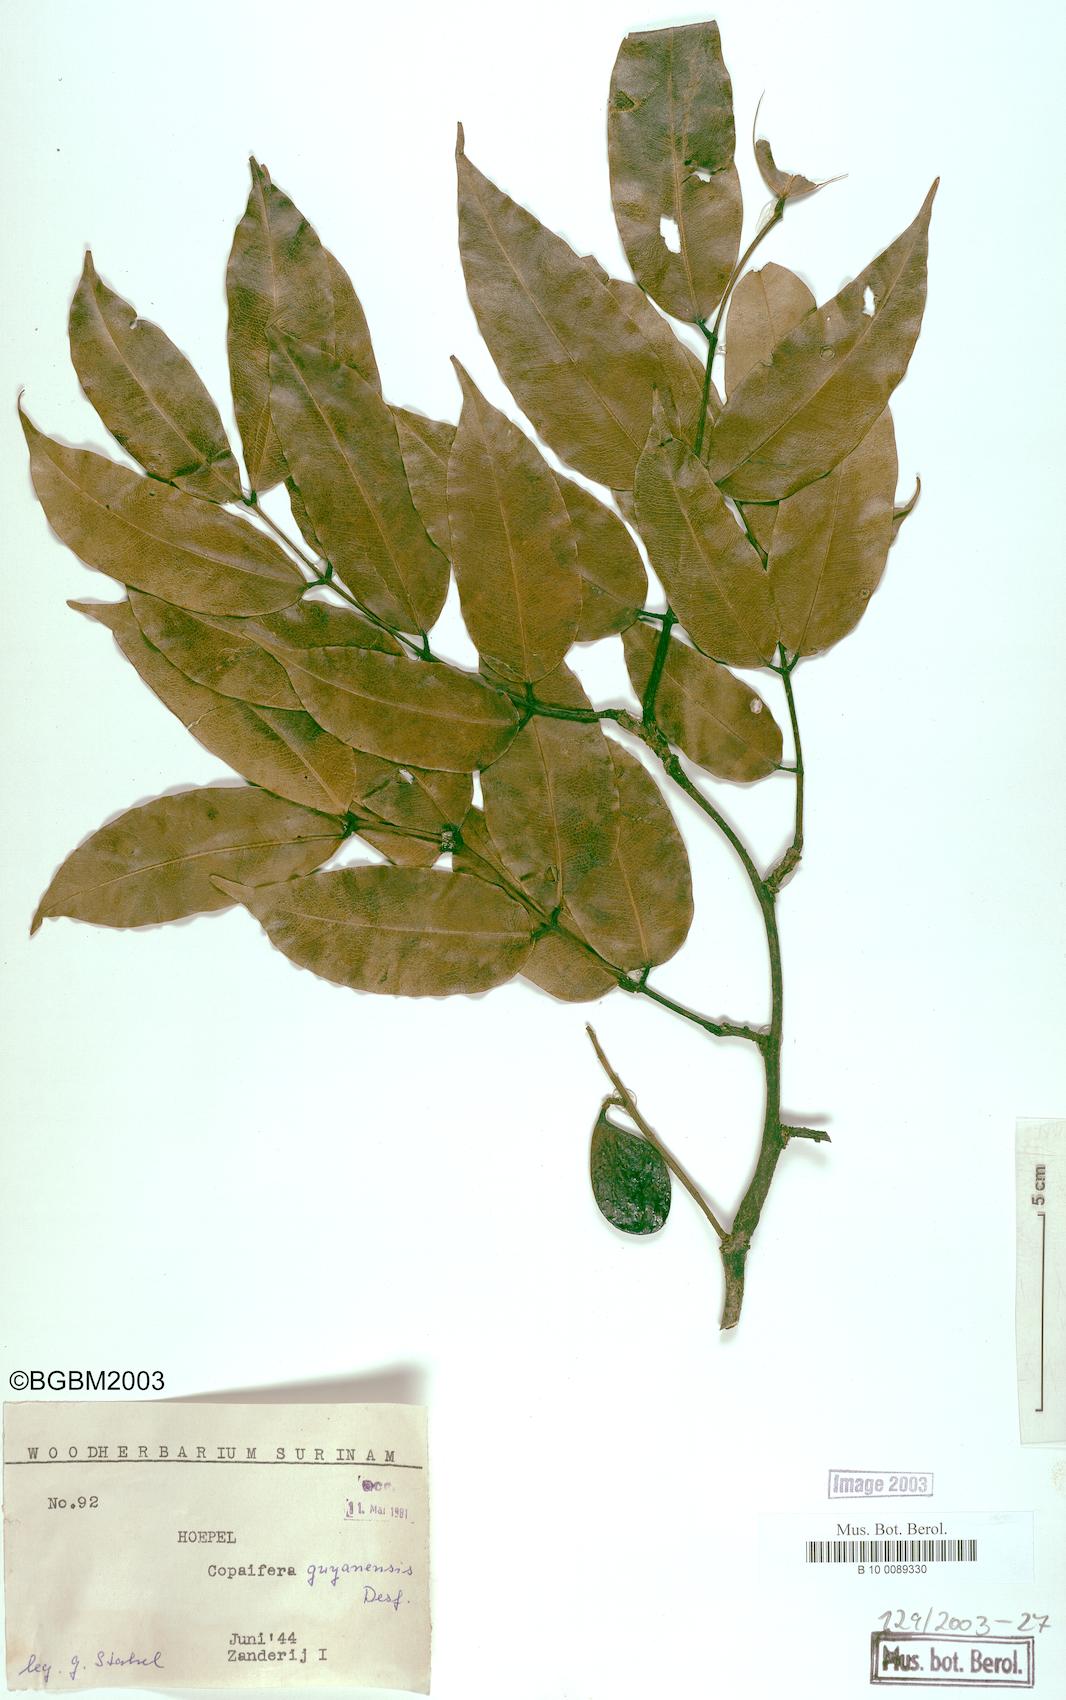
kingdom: Plantae
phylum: Tracheophyta
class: Magnoliopsida
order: Fabales
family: Fabaceae
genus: Copaifera
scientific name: Copaifera guianensis
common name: Copaiba
